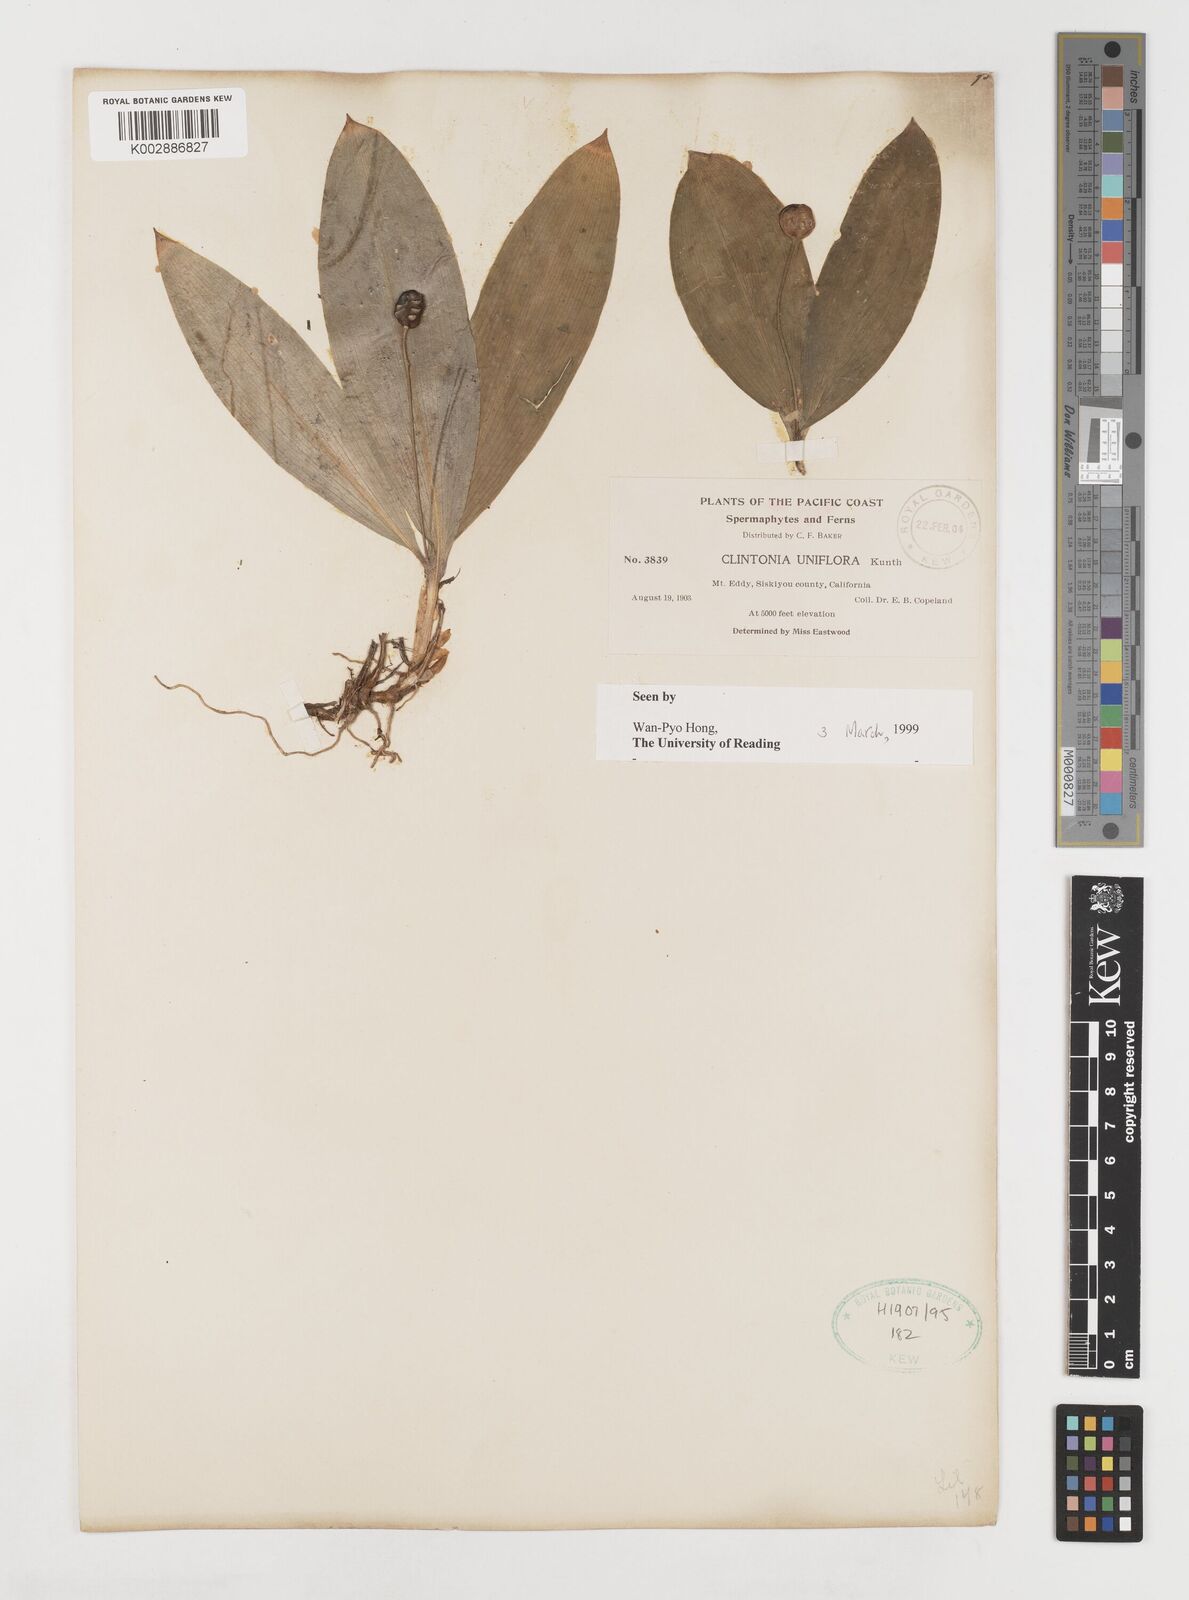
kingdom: Plantae
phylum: Tracheophyta
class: Liliopsida
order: Liliales
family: Liliaceae
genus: Clintonia
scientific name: Clintonia uniflora
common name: Queen's cup
